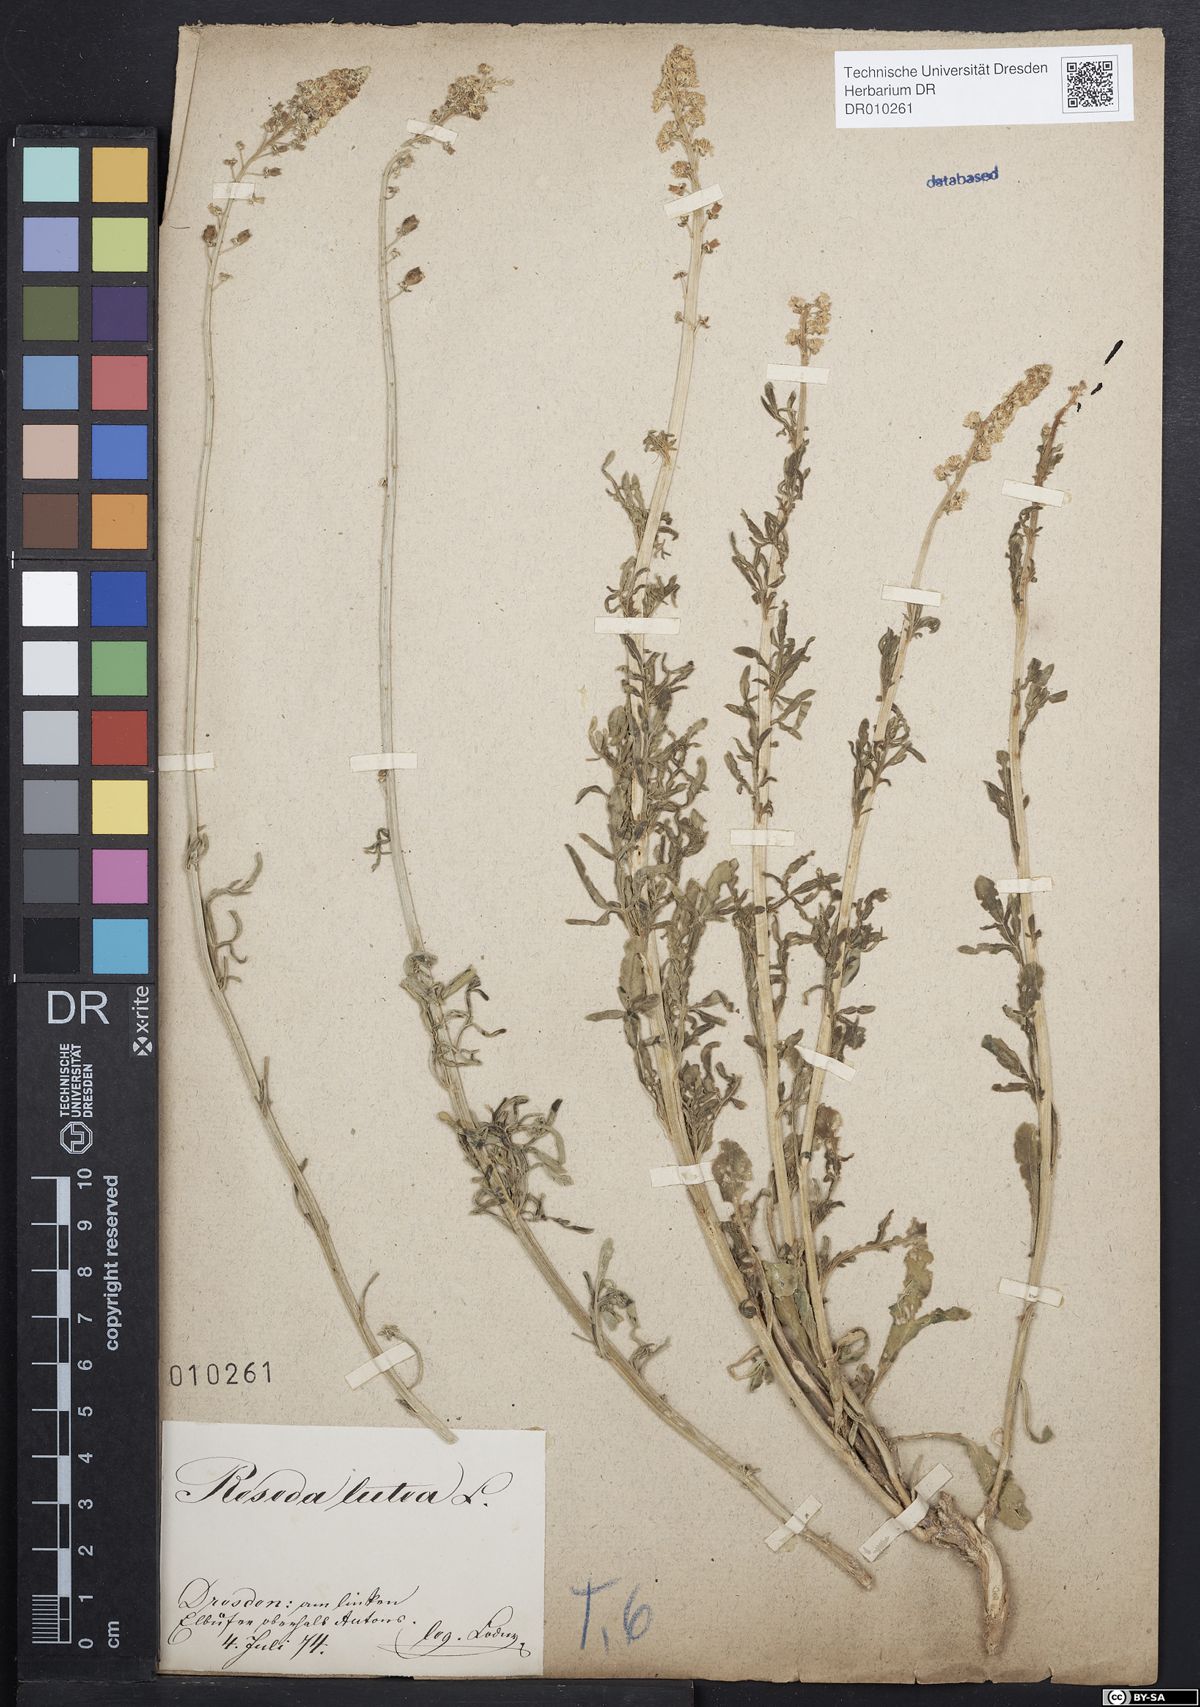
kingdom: Plantae
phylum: Tracheophyta
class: Magnoliopsida
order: Brassicales
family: Resedaceae
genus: Reseda
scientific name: Reseda lutea
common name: Wild mignonette
